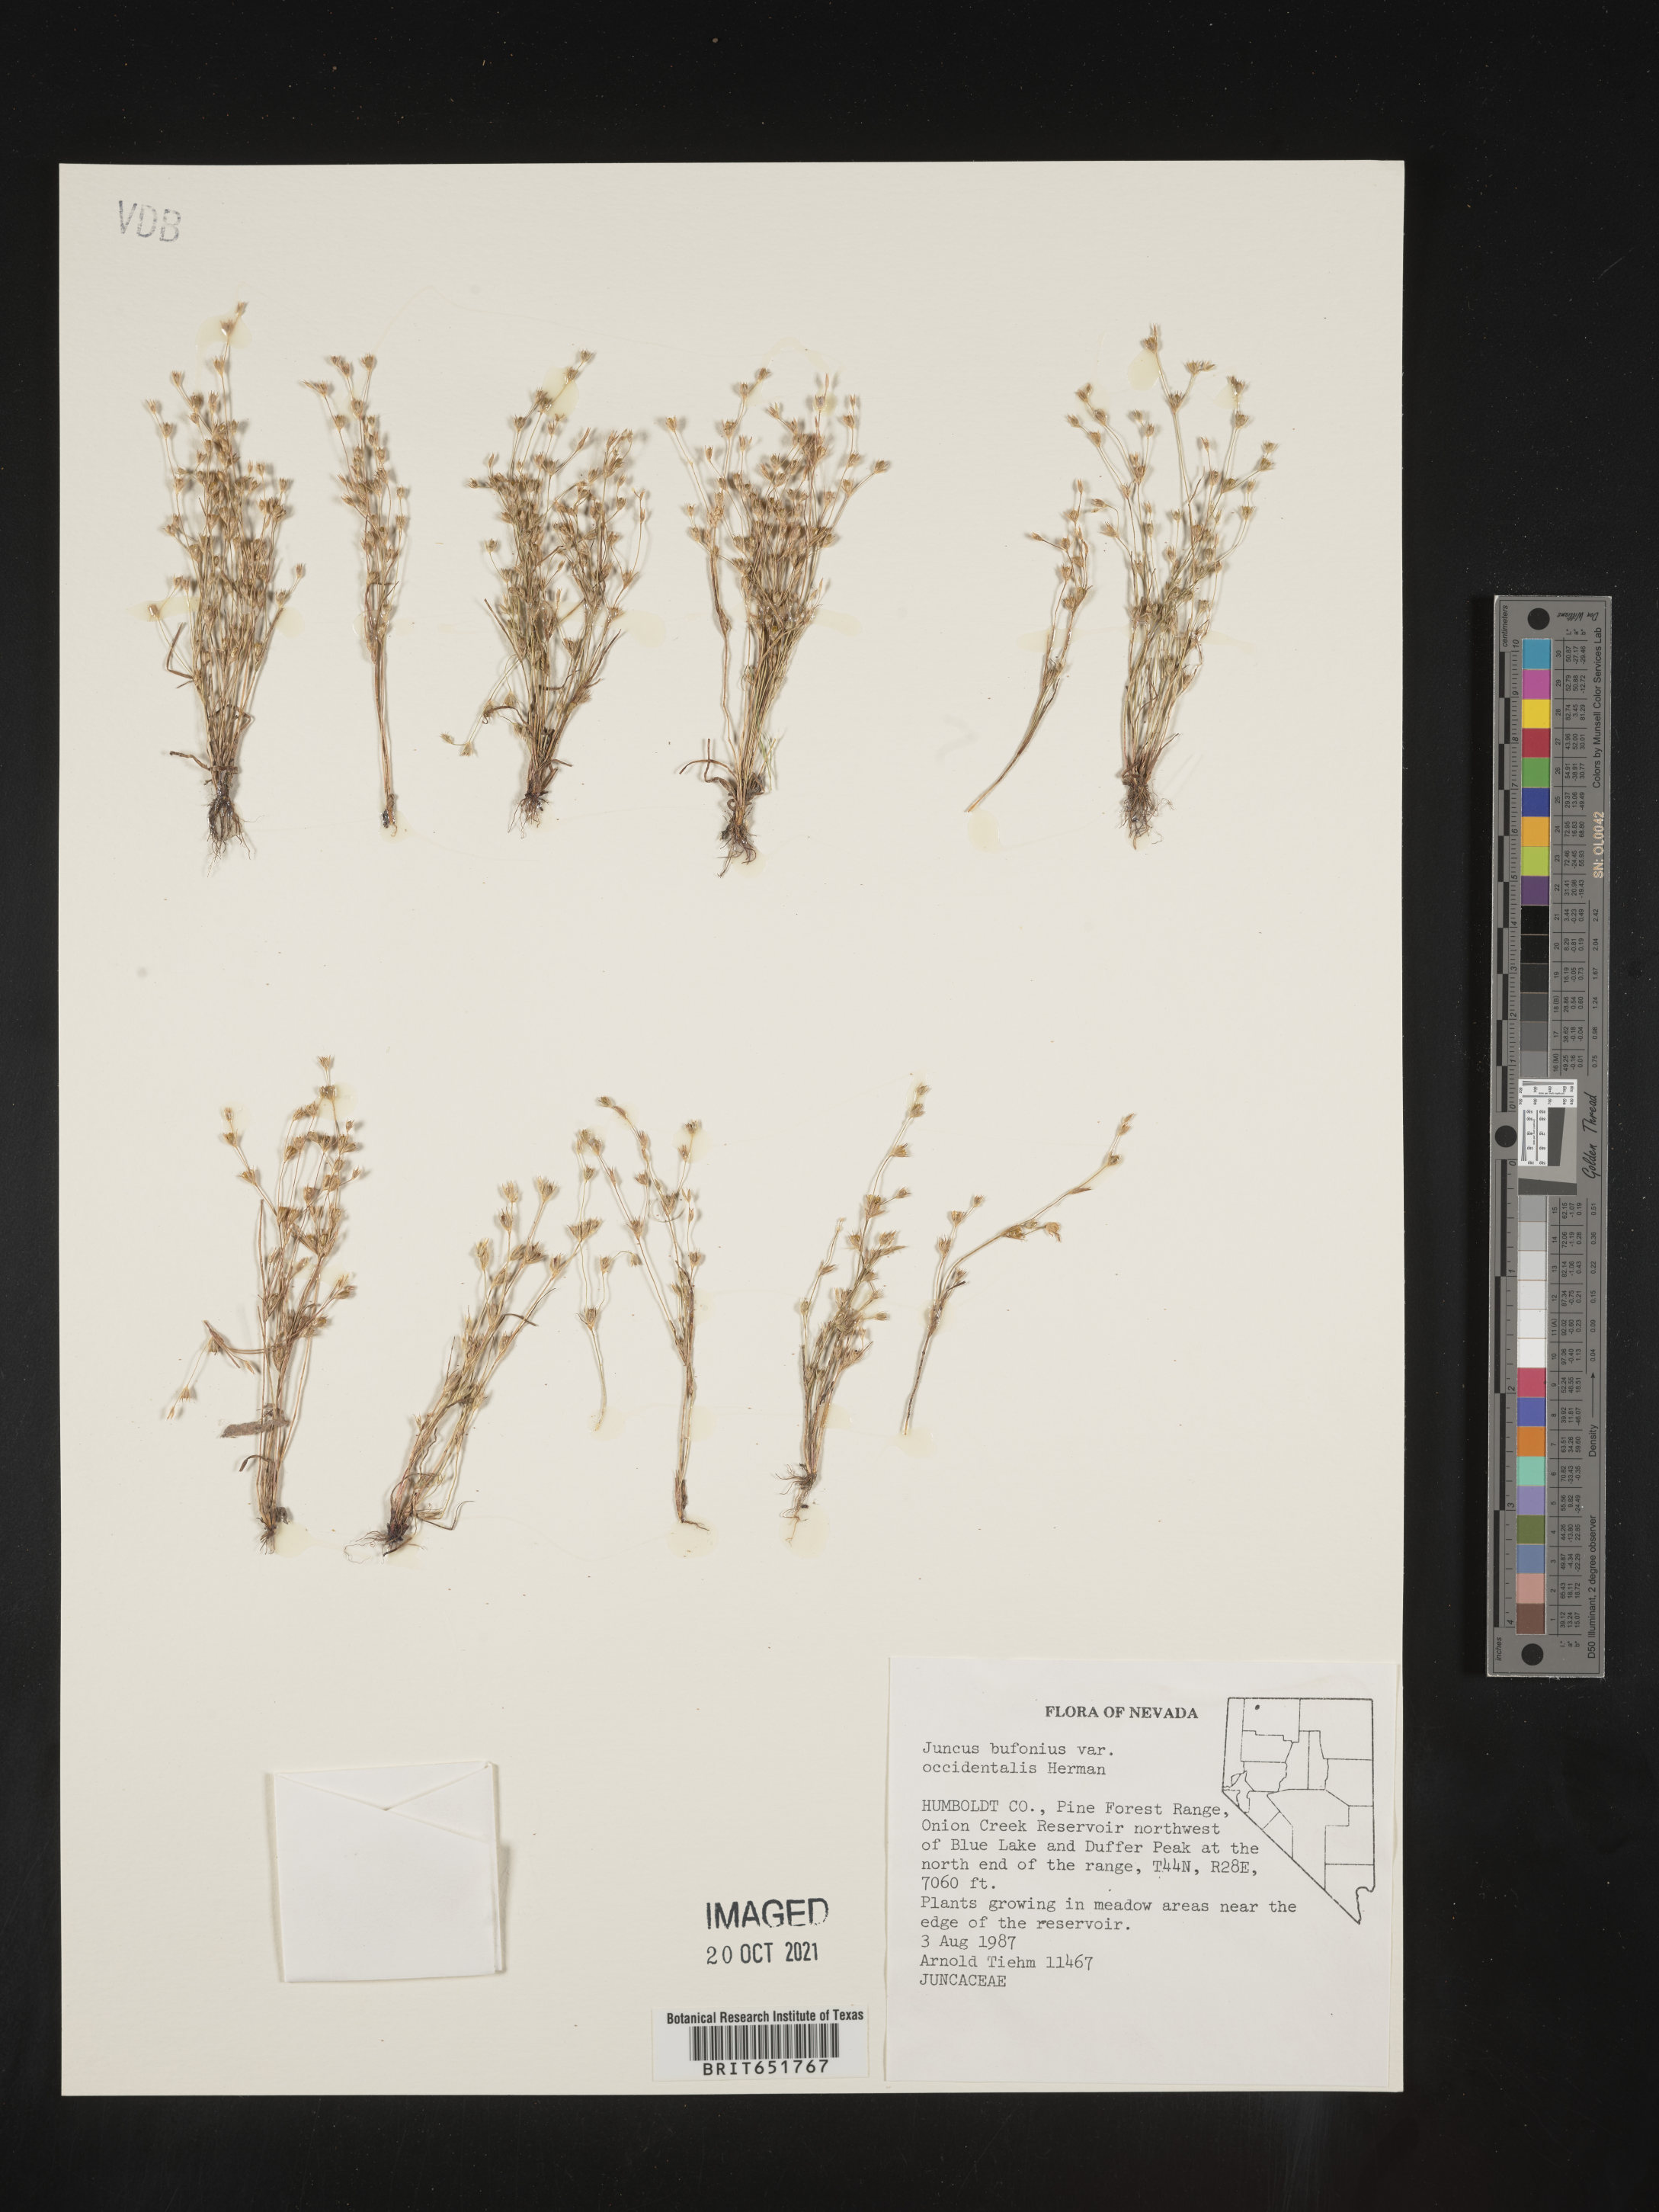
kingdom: Plantae
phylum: Tracheophyta
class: Liliopsida
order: Poales
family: Juncaceae
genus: Juncus
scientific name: Juncus amuricus
